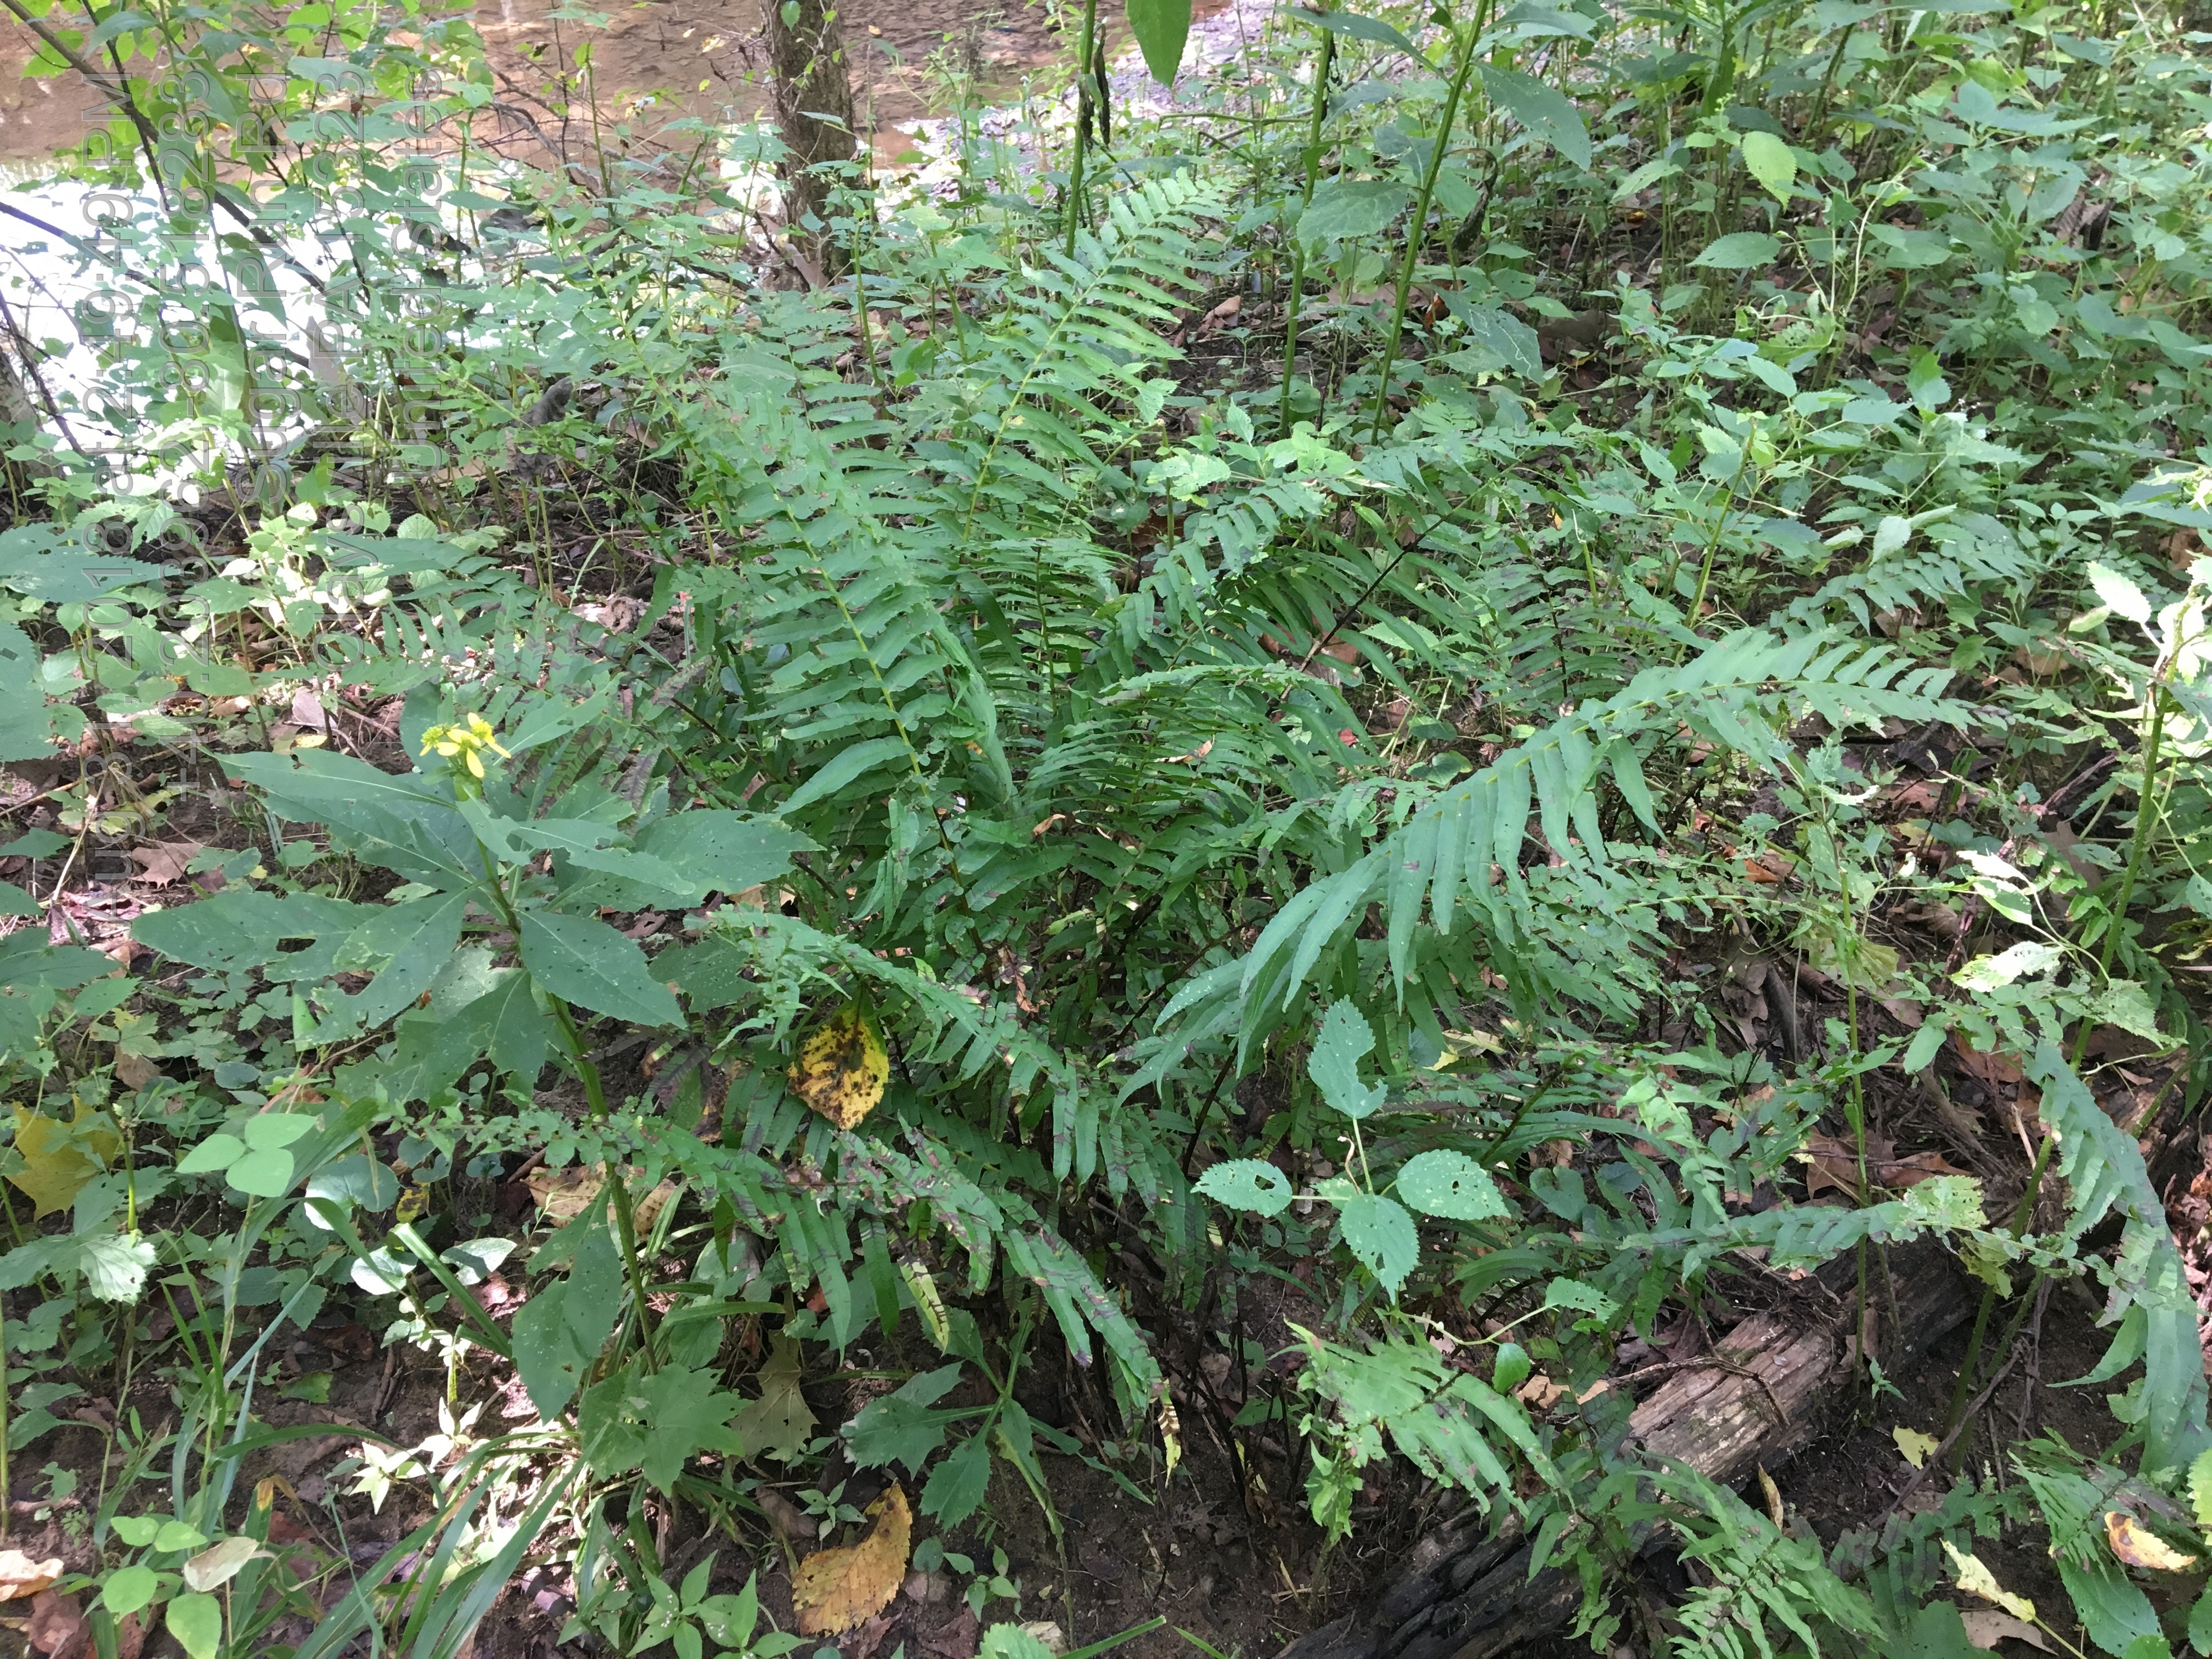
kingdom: Plantae
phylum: Tracheophyta
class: Polypodiopsida
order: Polypodiales
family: Diplaziopsidaceae
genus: Homalosorus
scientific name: Homalosorus pycnocarpos
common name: glade fern
